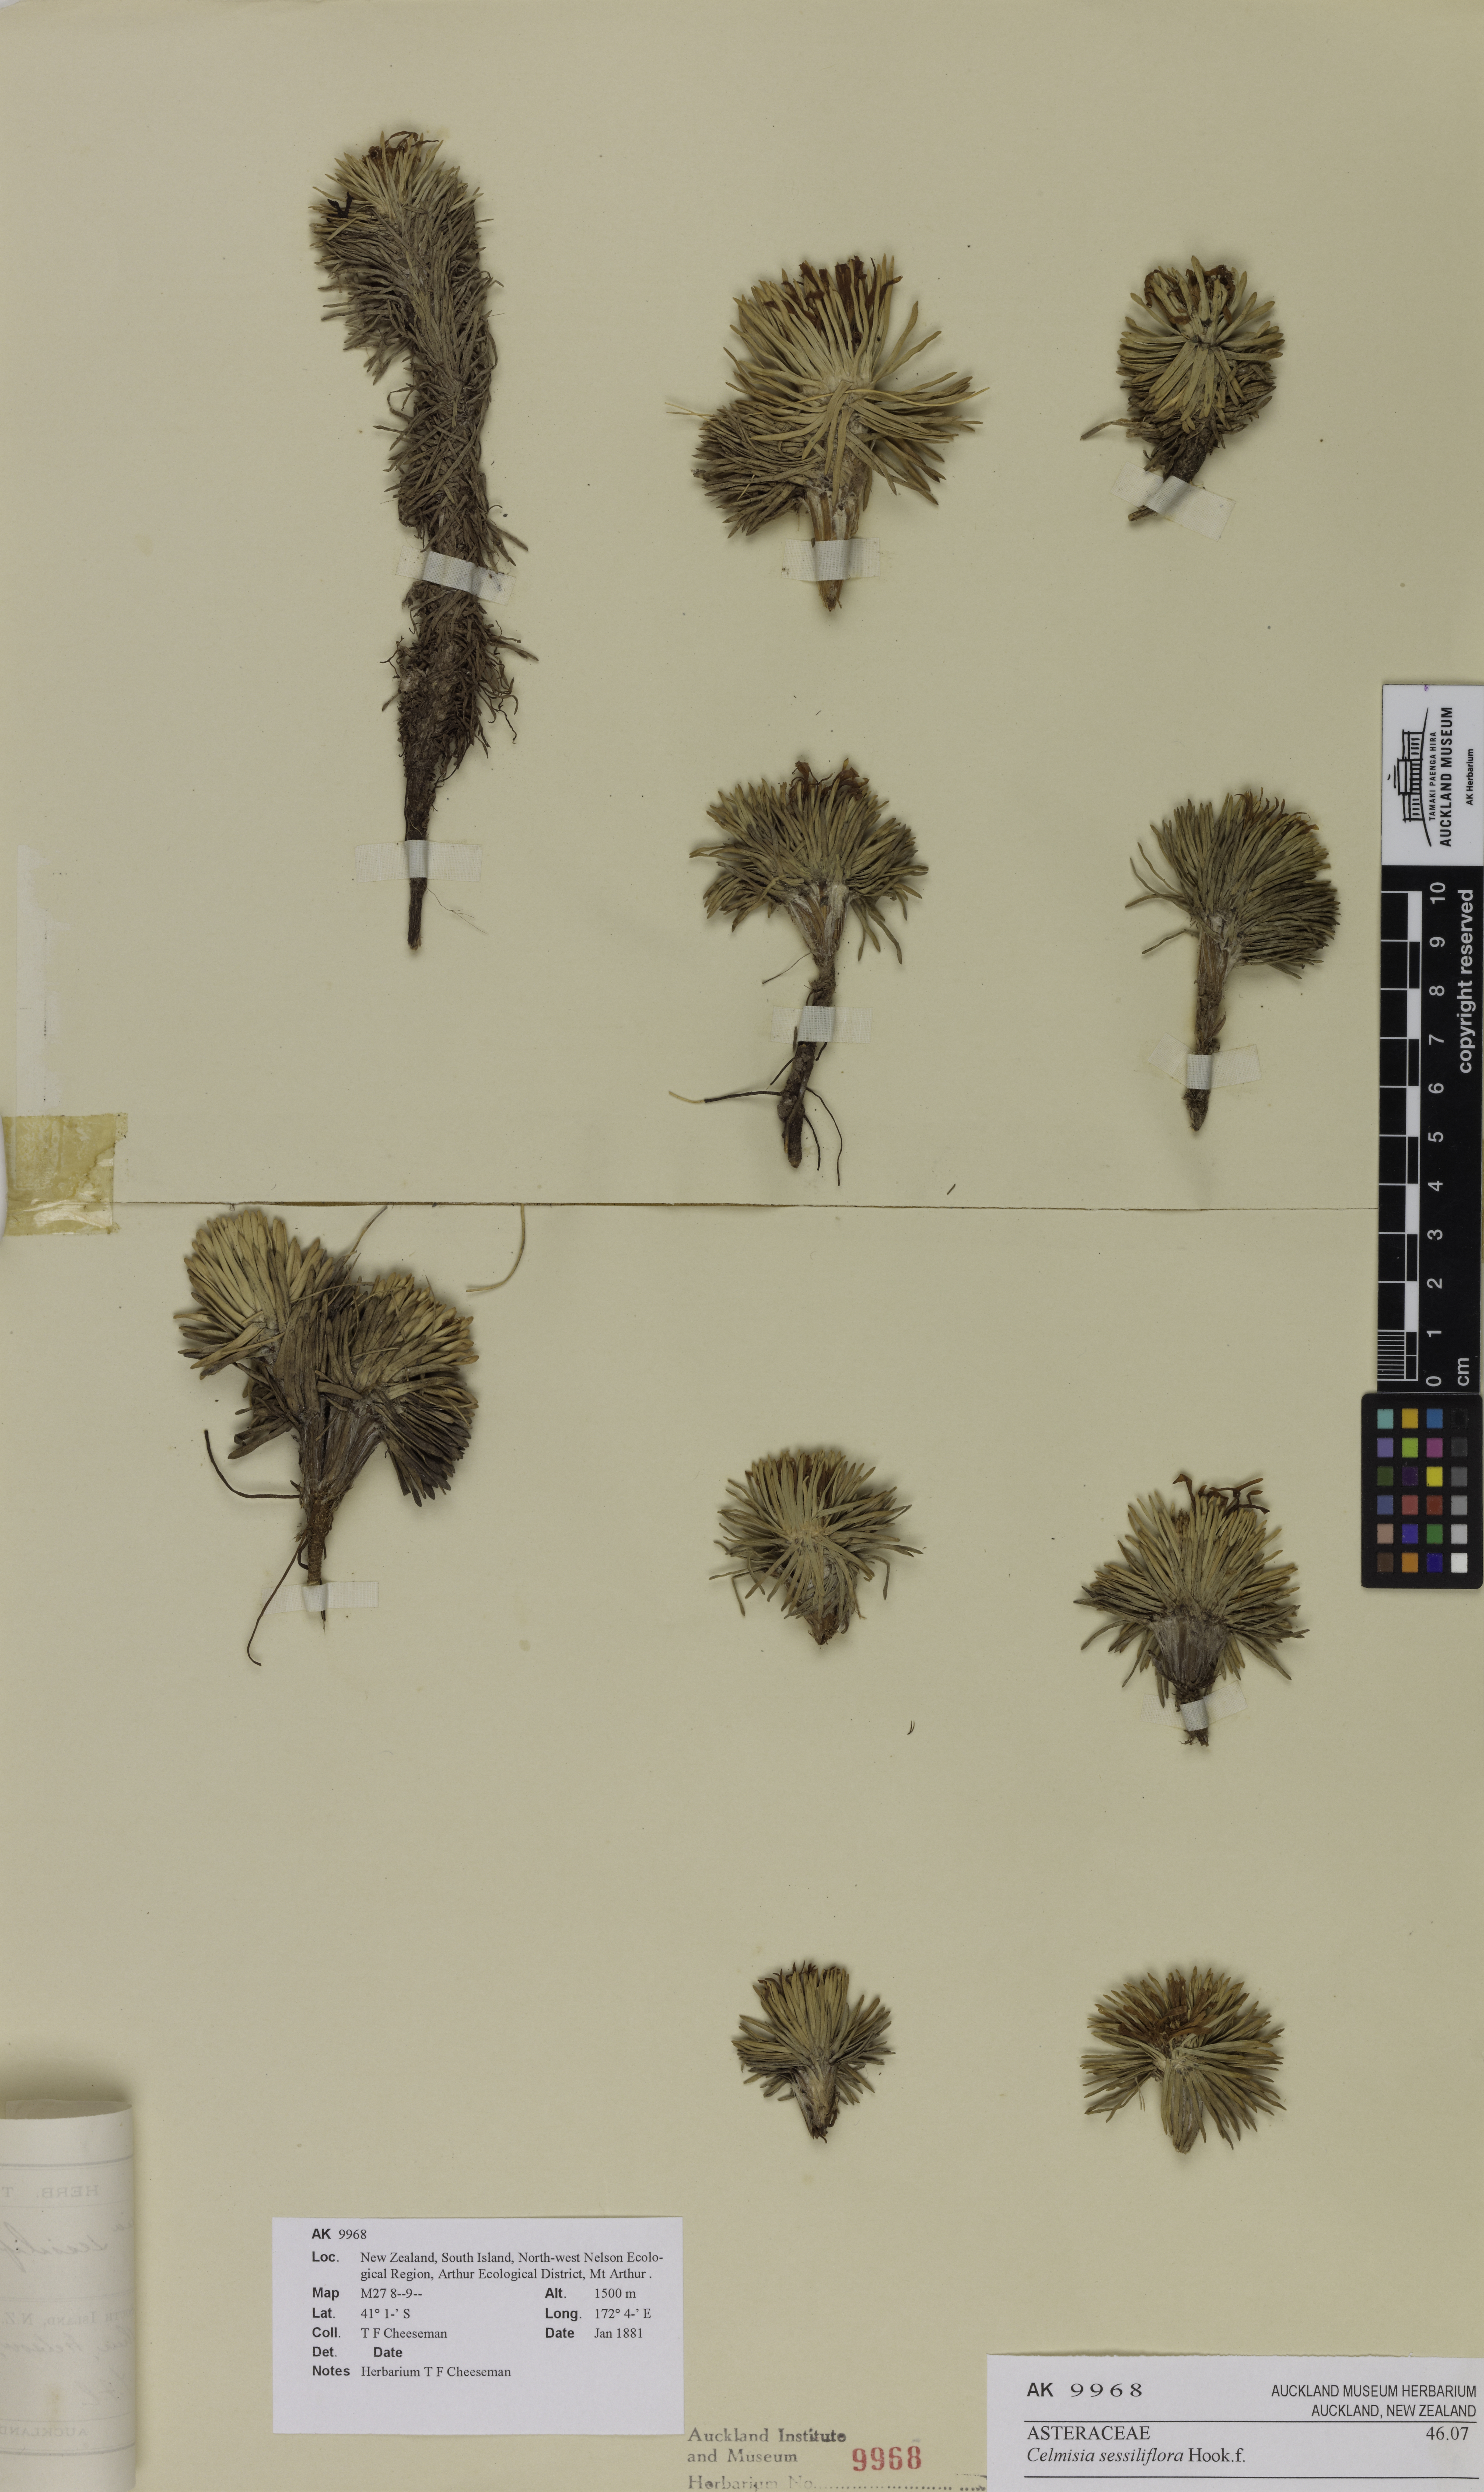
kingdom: Plantae
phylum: Tracheophyta
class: Magnoliopsida
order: Asterales
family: Asteraceae
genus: Celmisia
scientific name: Celmisia sessiliflora
